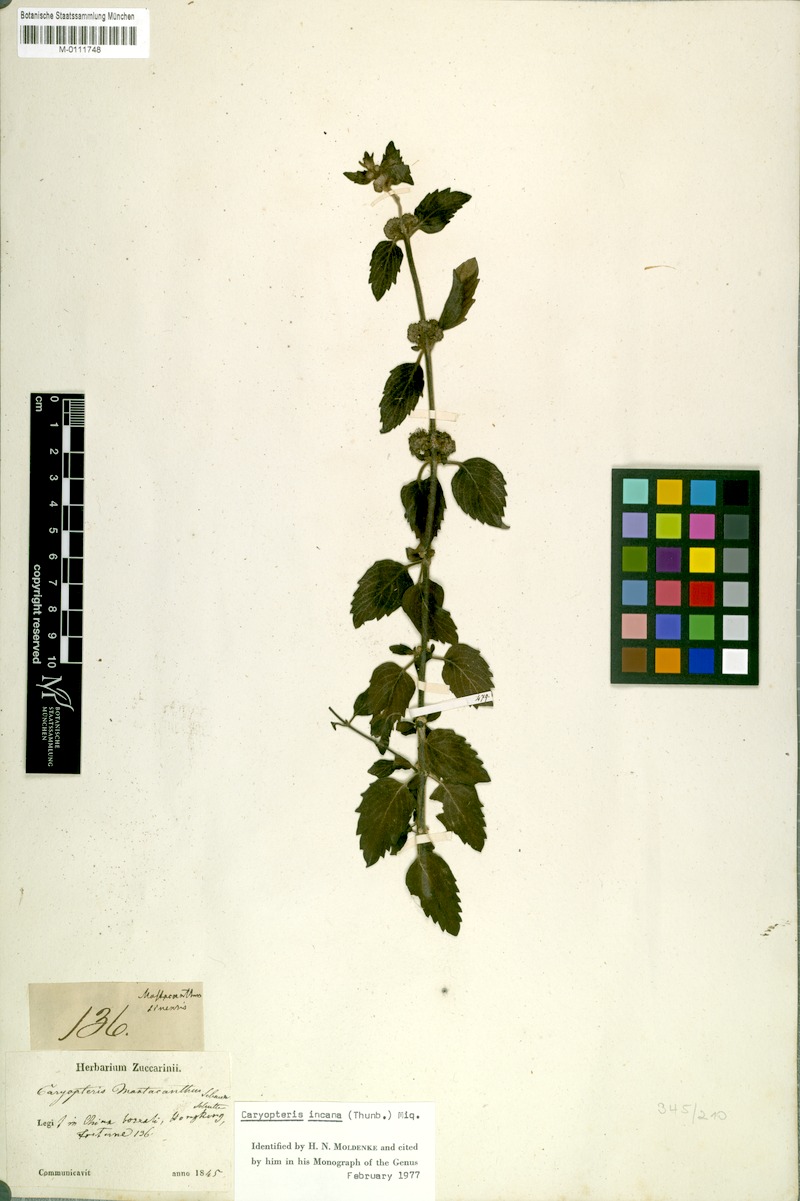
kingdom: Plantae
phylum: Tracheophyta
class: Magnoliopsida
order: Lamiales
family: Lamiaceae
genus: Caryopteris
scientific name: Caryopteris incana
